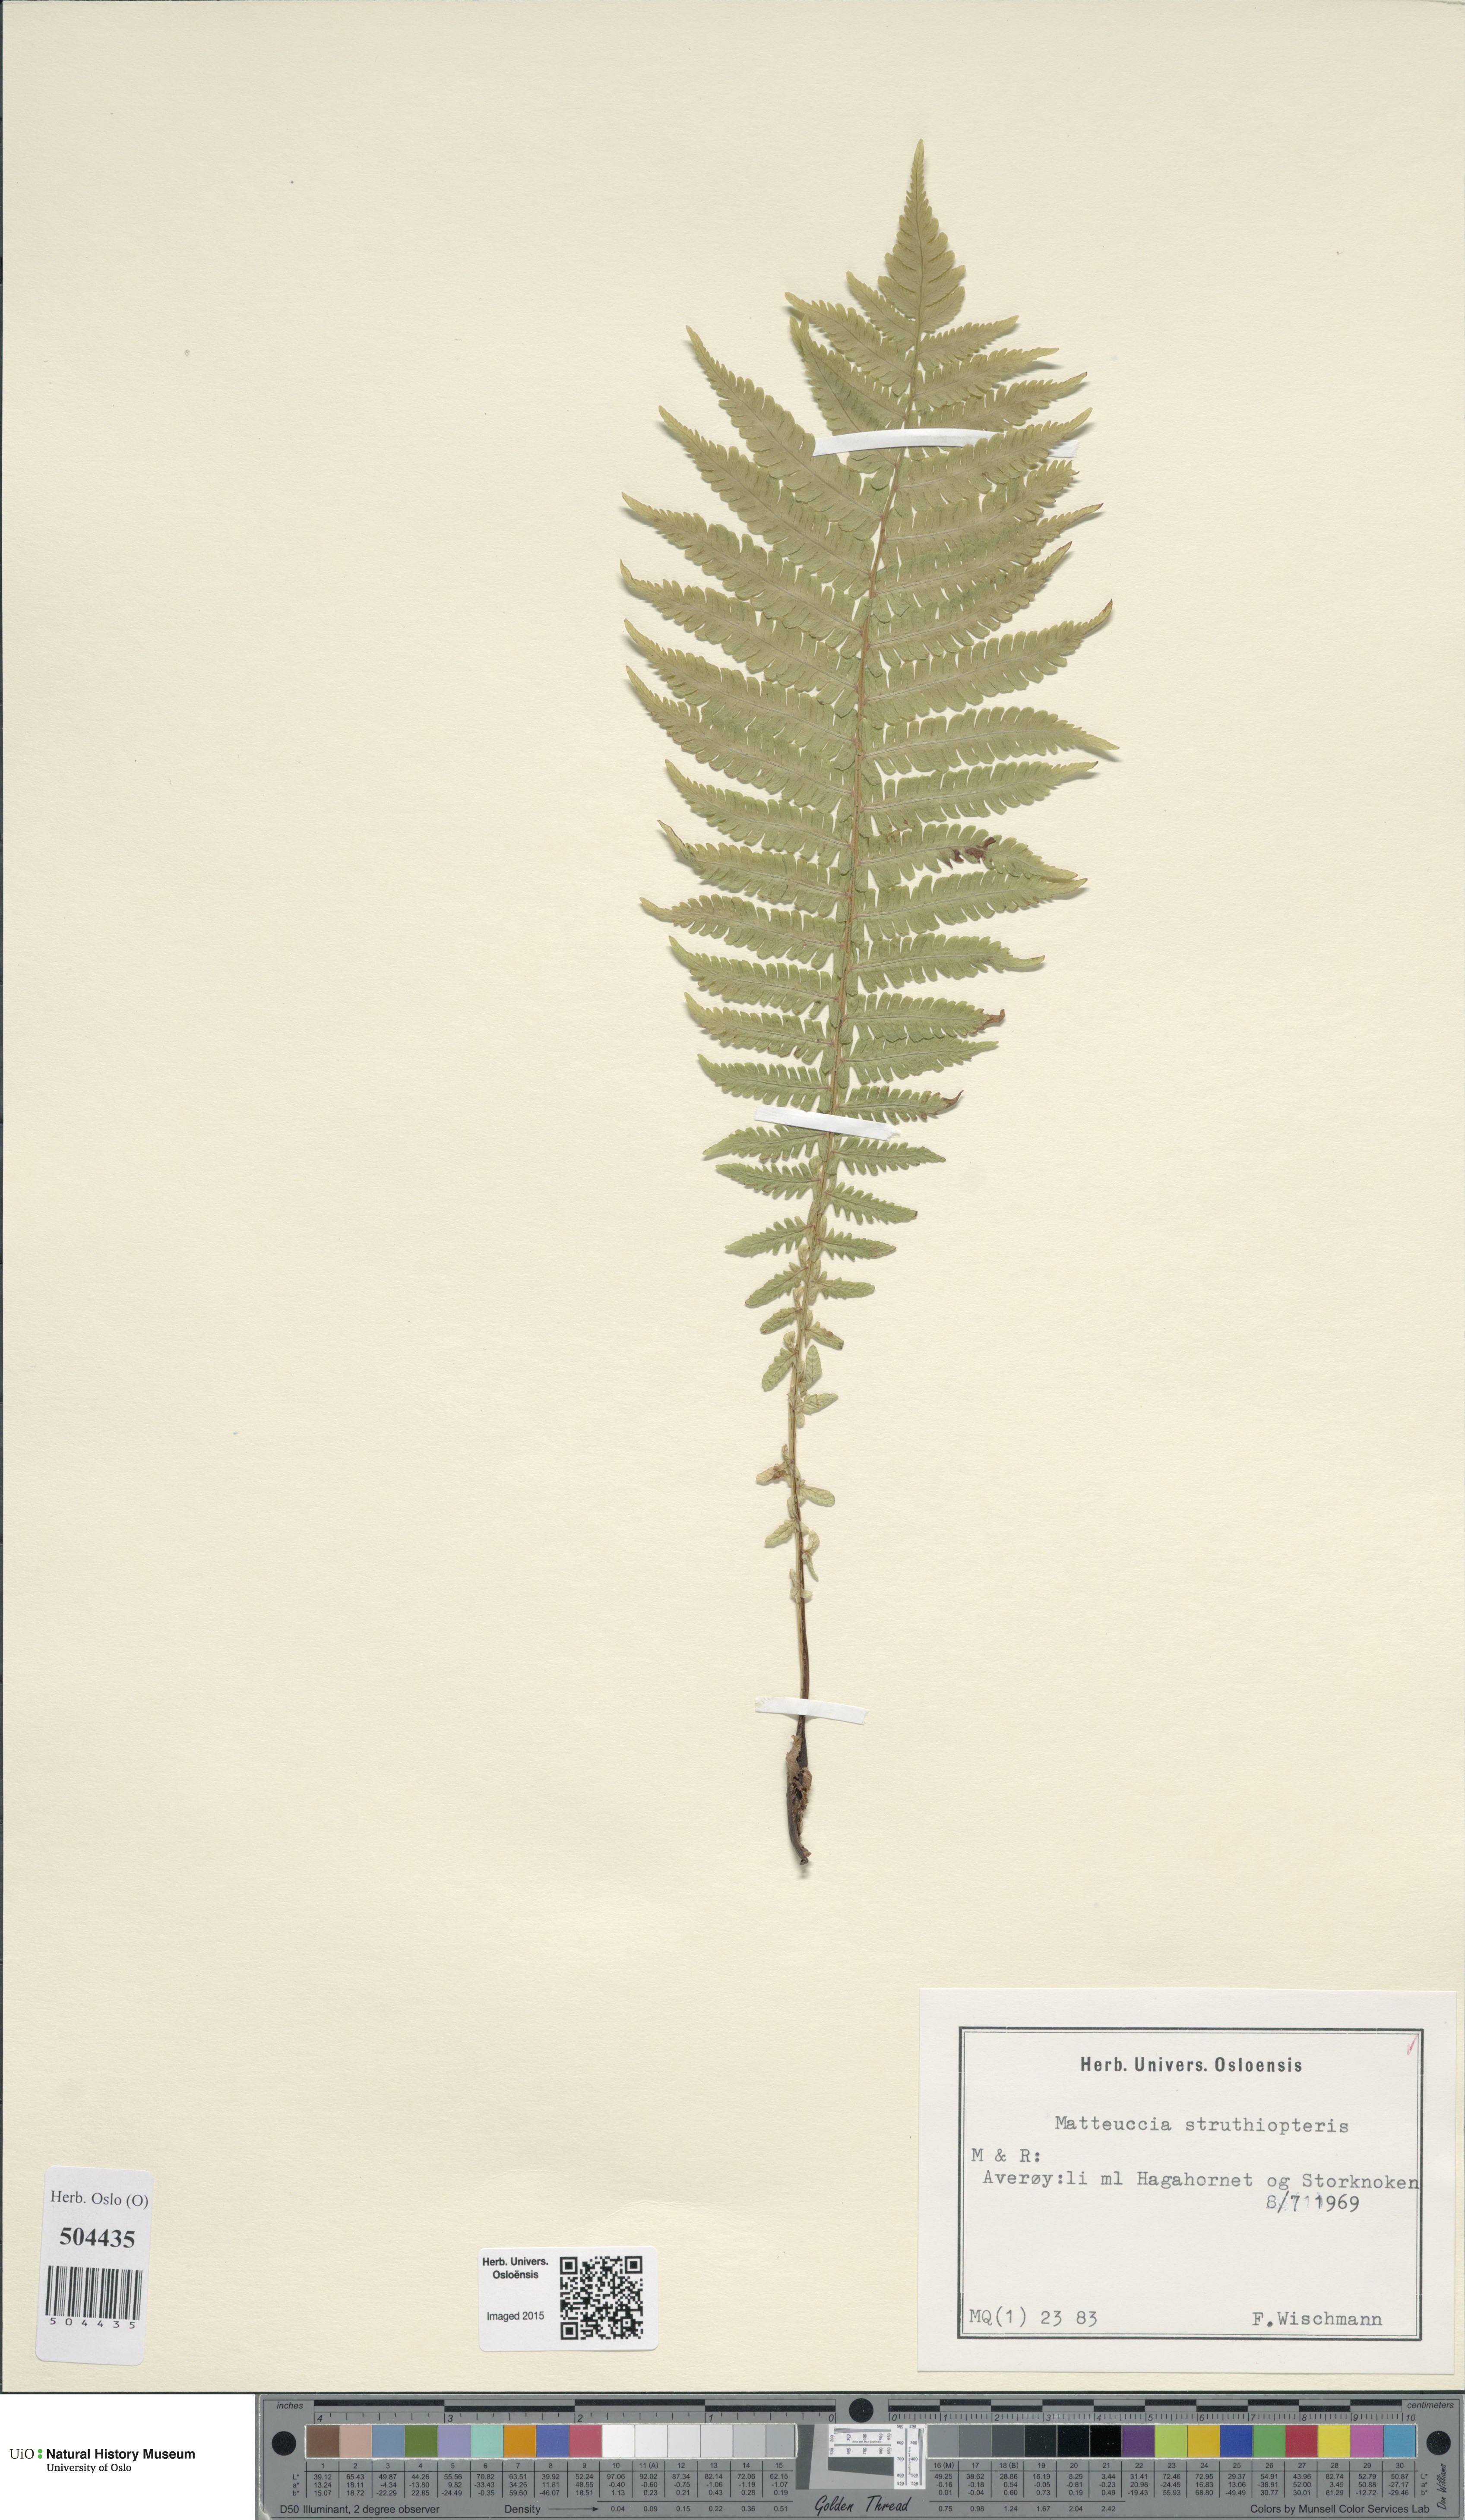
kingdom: Plantae
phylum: Tracheophyta
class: Polypodiopsida
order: Polypodiales
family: Onocleaceae
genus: Matteuccia
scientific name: Matteuccia struthiopteris
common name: Ostrich fern
